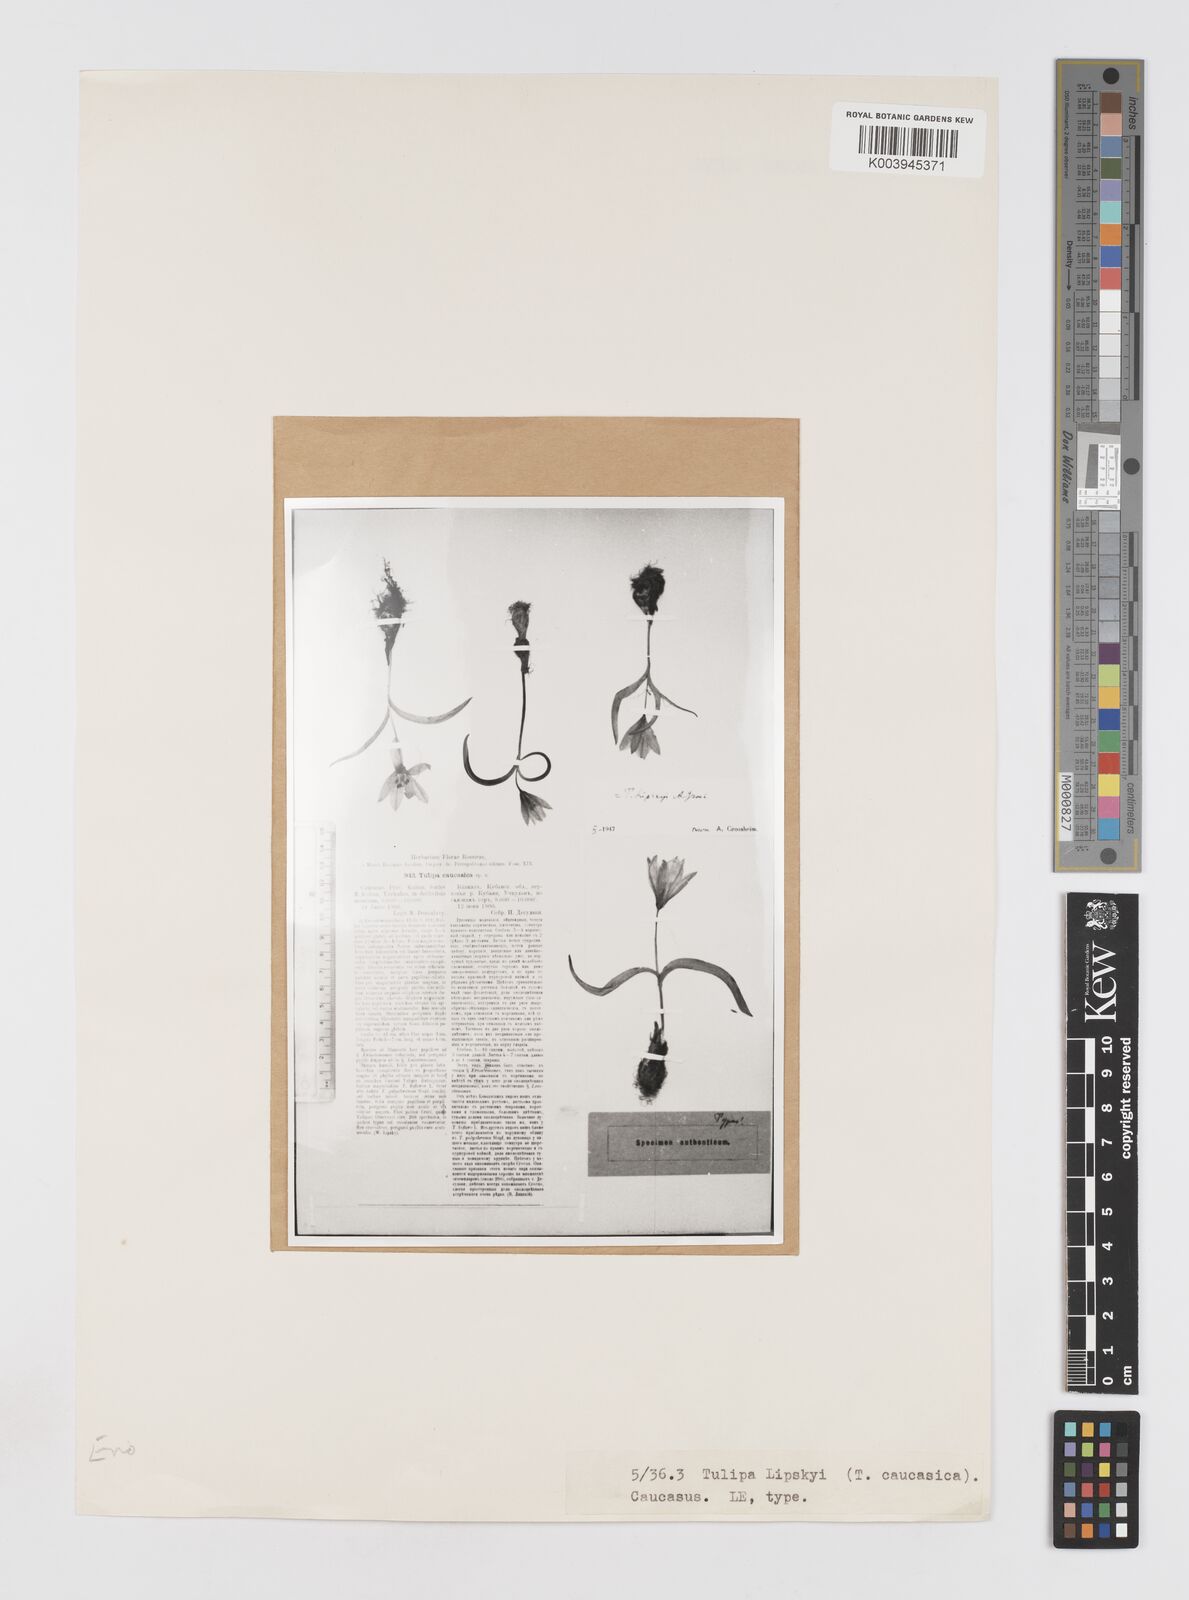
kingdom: Plantae
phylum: Tracheophyta
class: Liliopsida
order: Liliales
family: Liliaceae
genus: Tulipa
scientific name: Tulipa humilis
